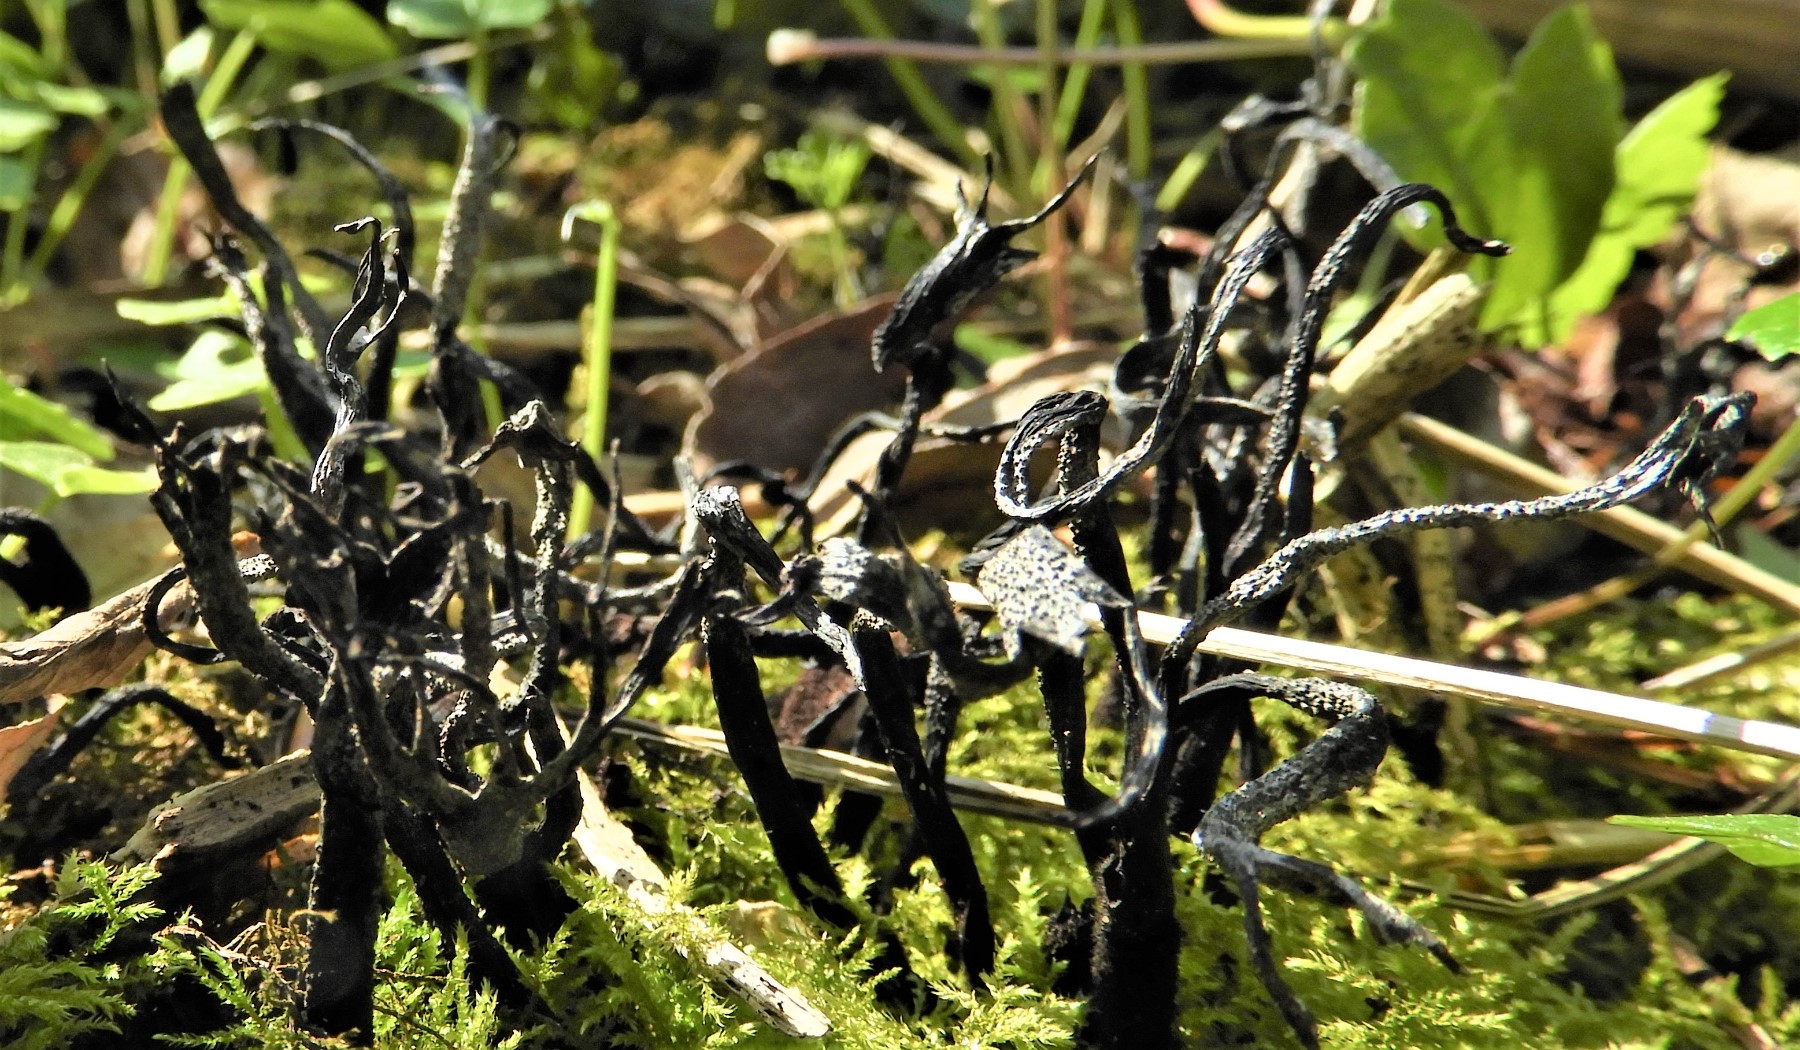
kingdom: Fungi
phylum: Ascomycota
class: Sordariomycetes
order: Xylariales
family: Xylariaceae
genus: Xylaria
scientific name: Xylaria hypoxylon
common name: grenet stødsvamp
